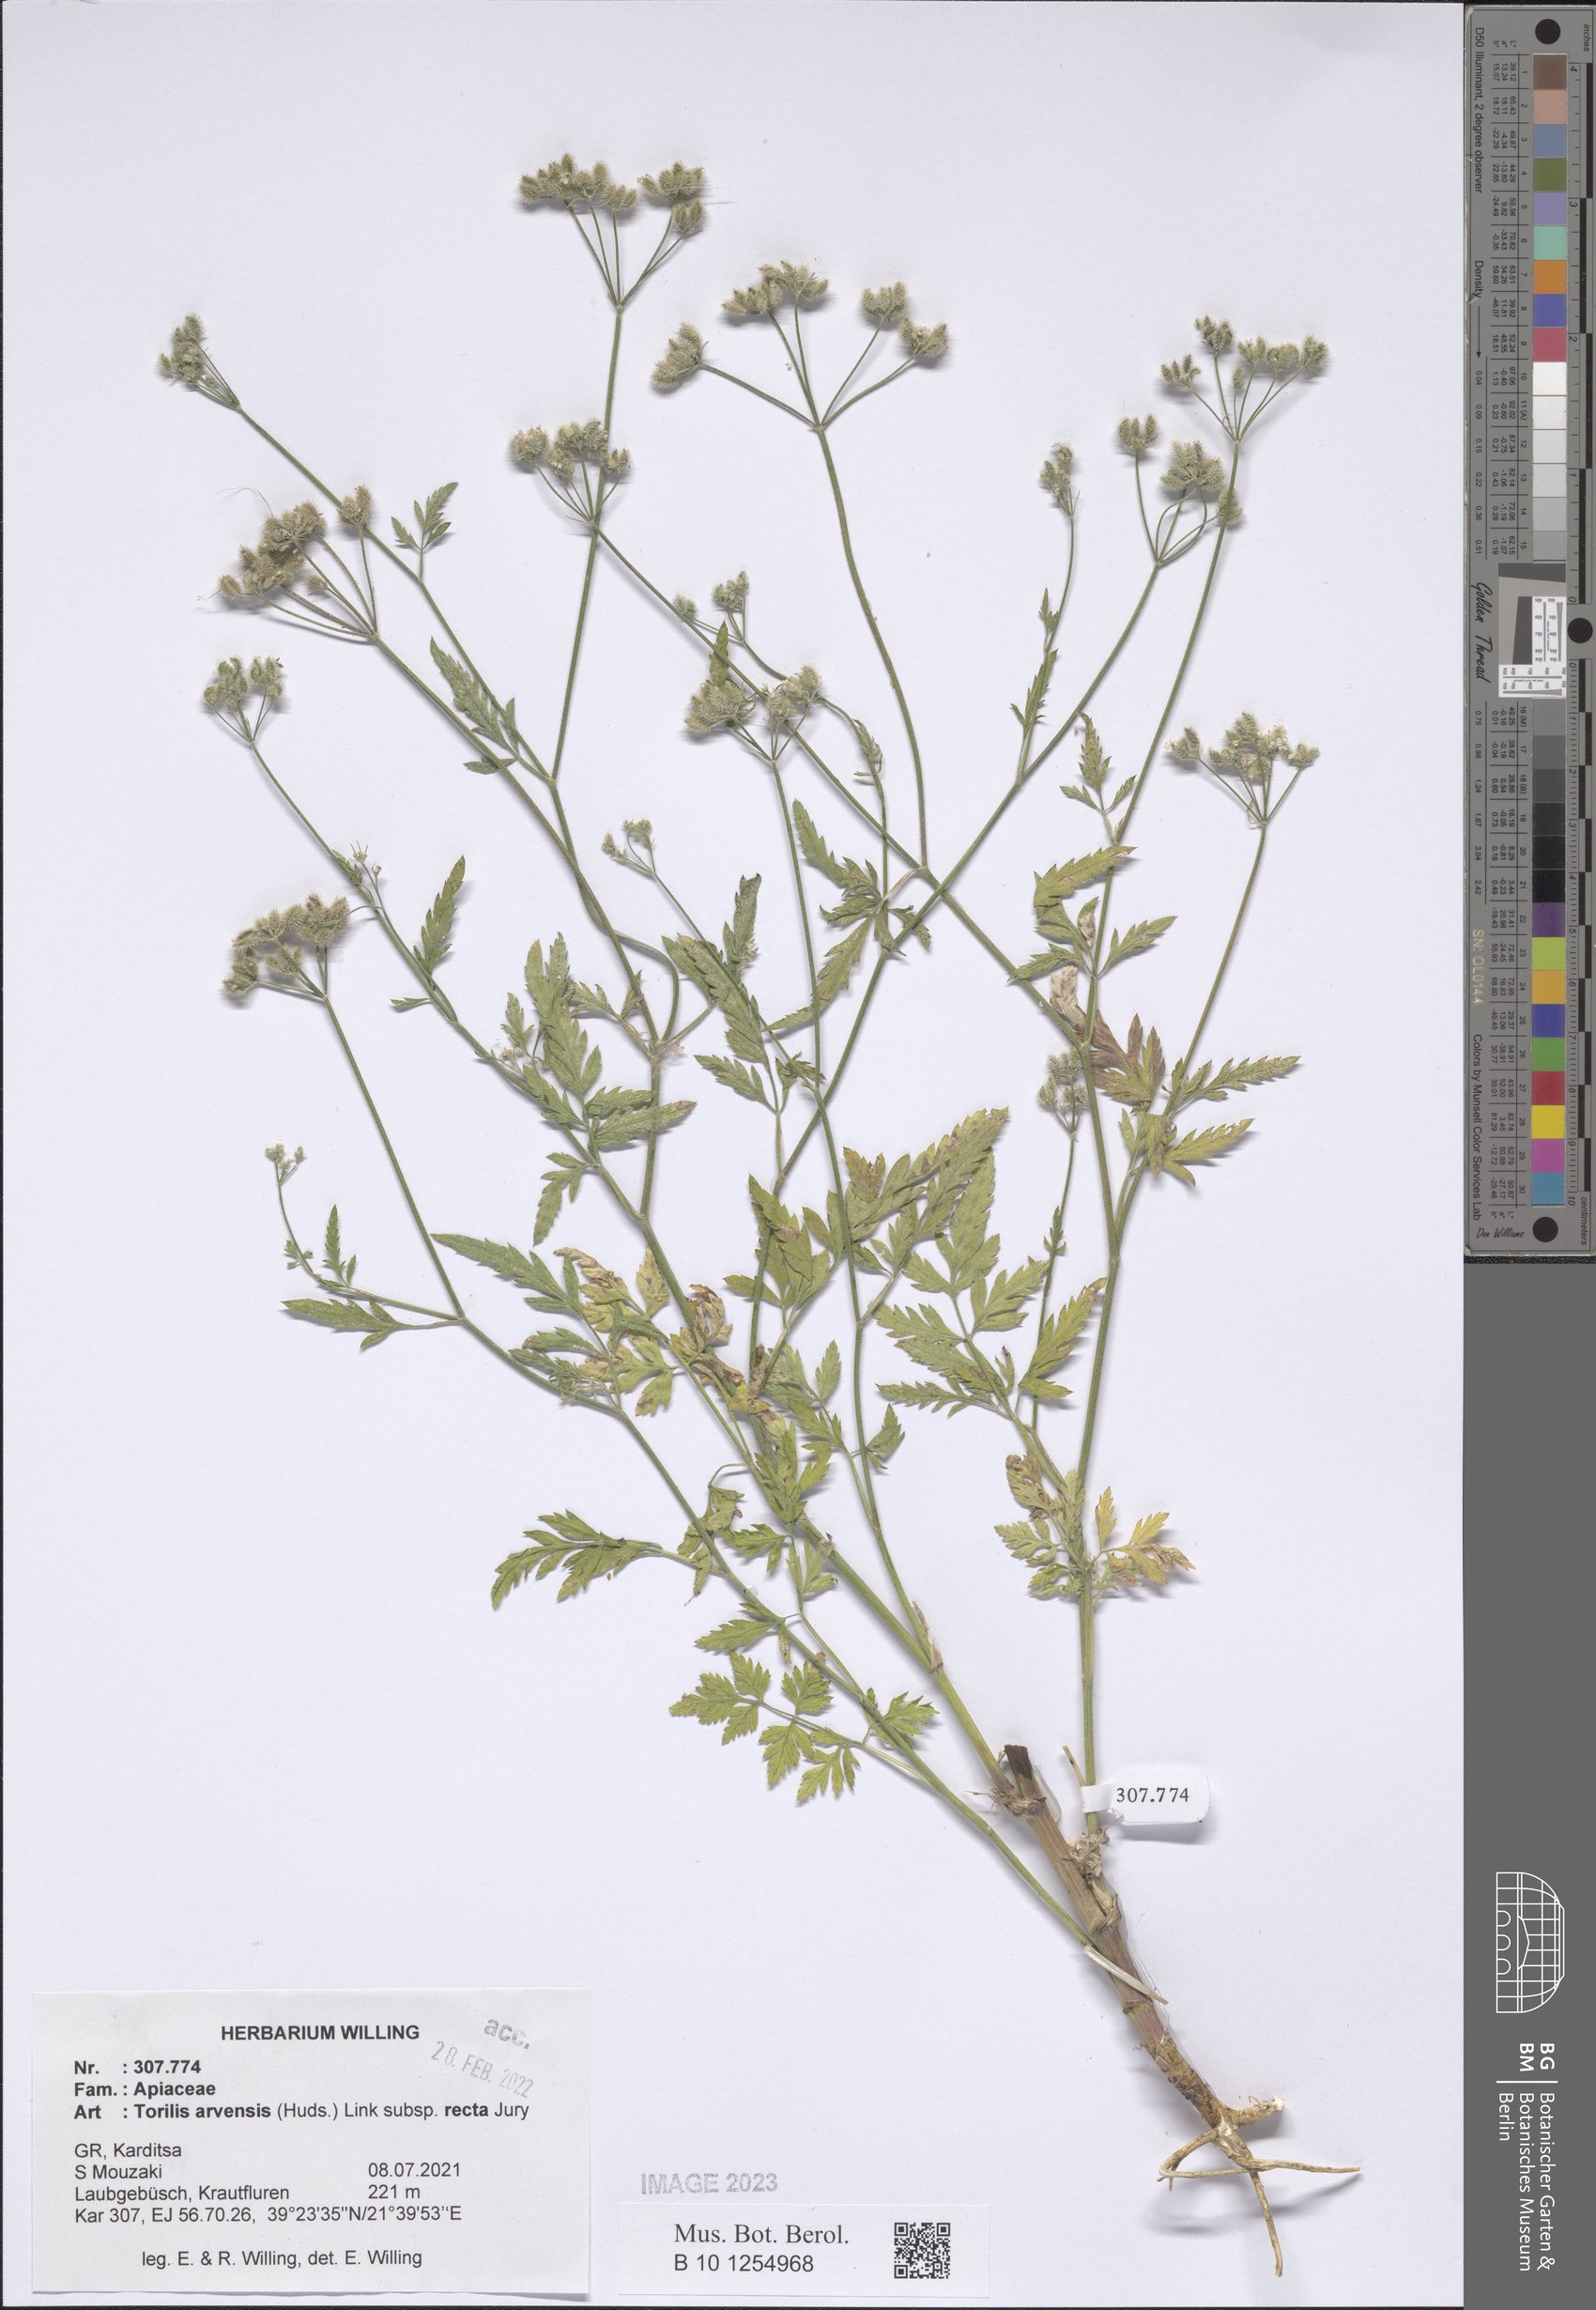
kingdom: Plantae
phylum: Tracheophyta
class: Magnoliopsida
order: Apiales
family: Apiaceae
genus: Torilis
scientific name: Torilis arvensis
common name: Spreading hedge-parsley
